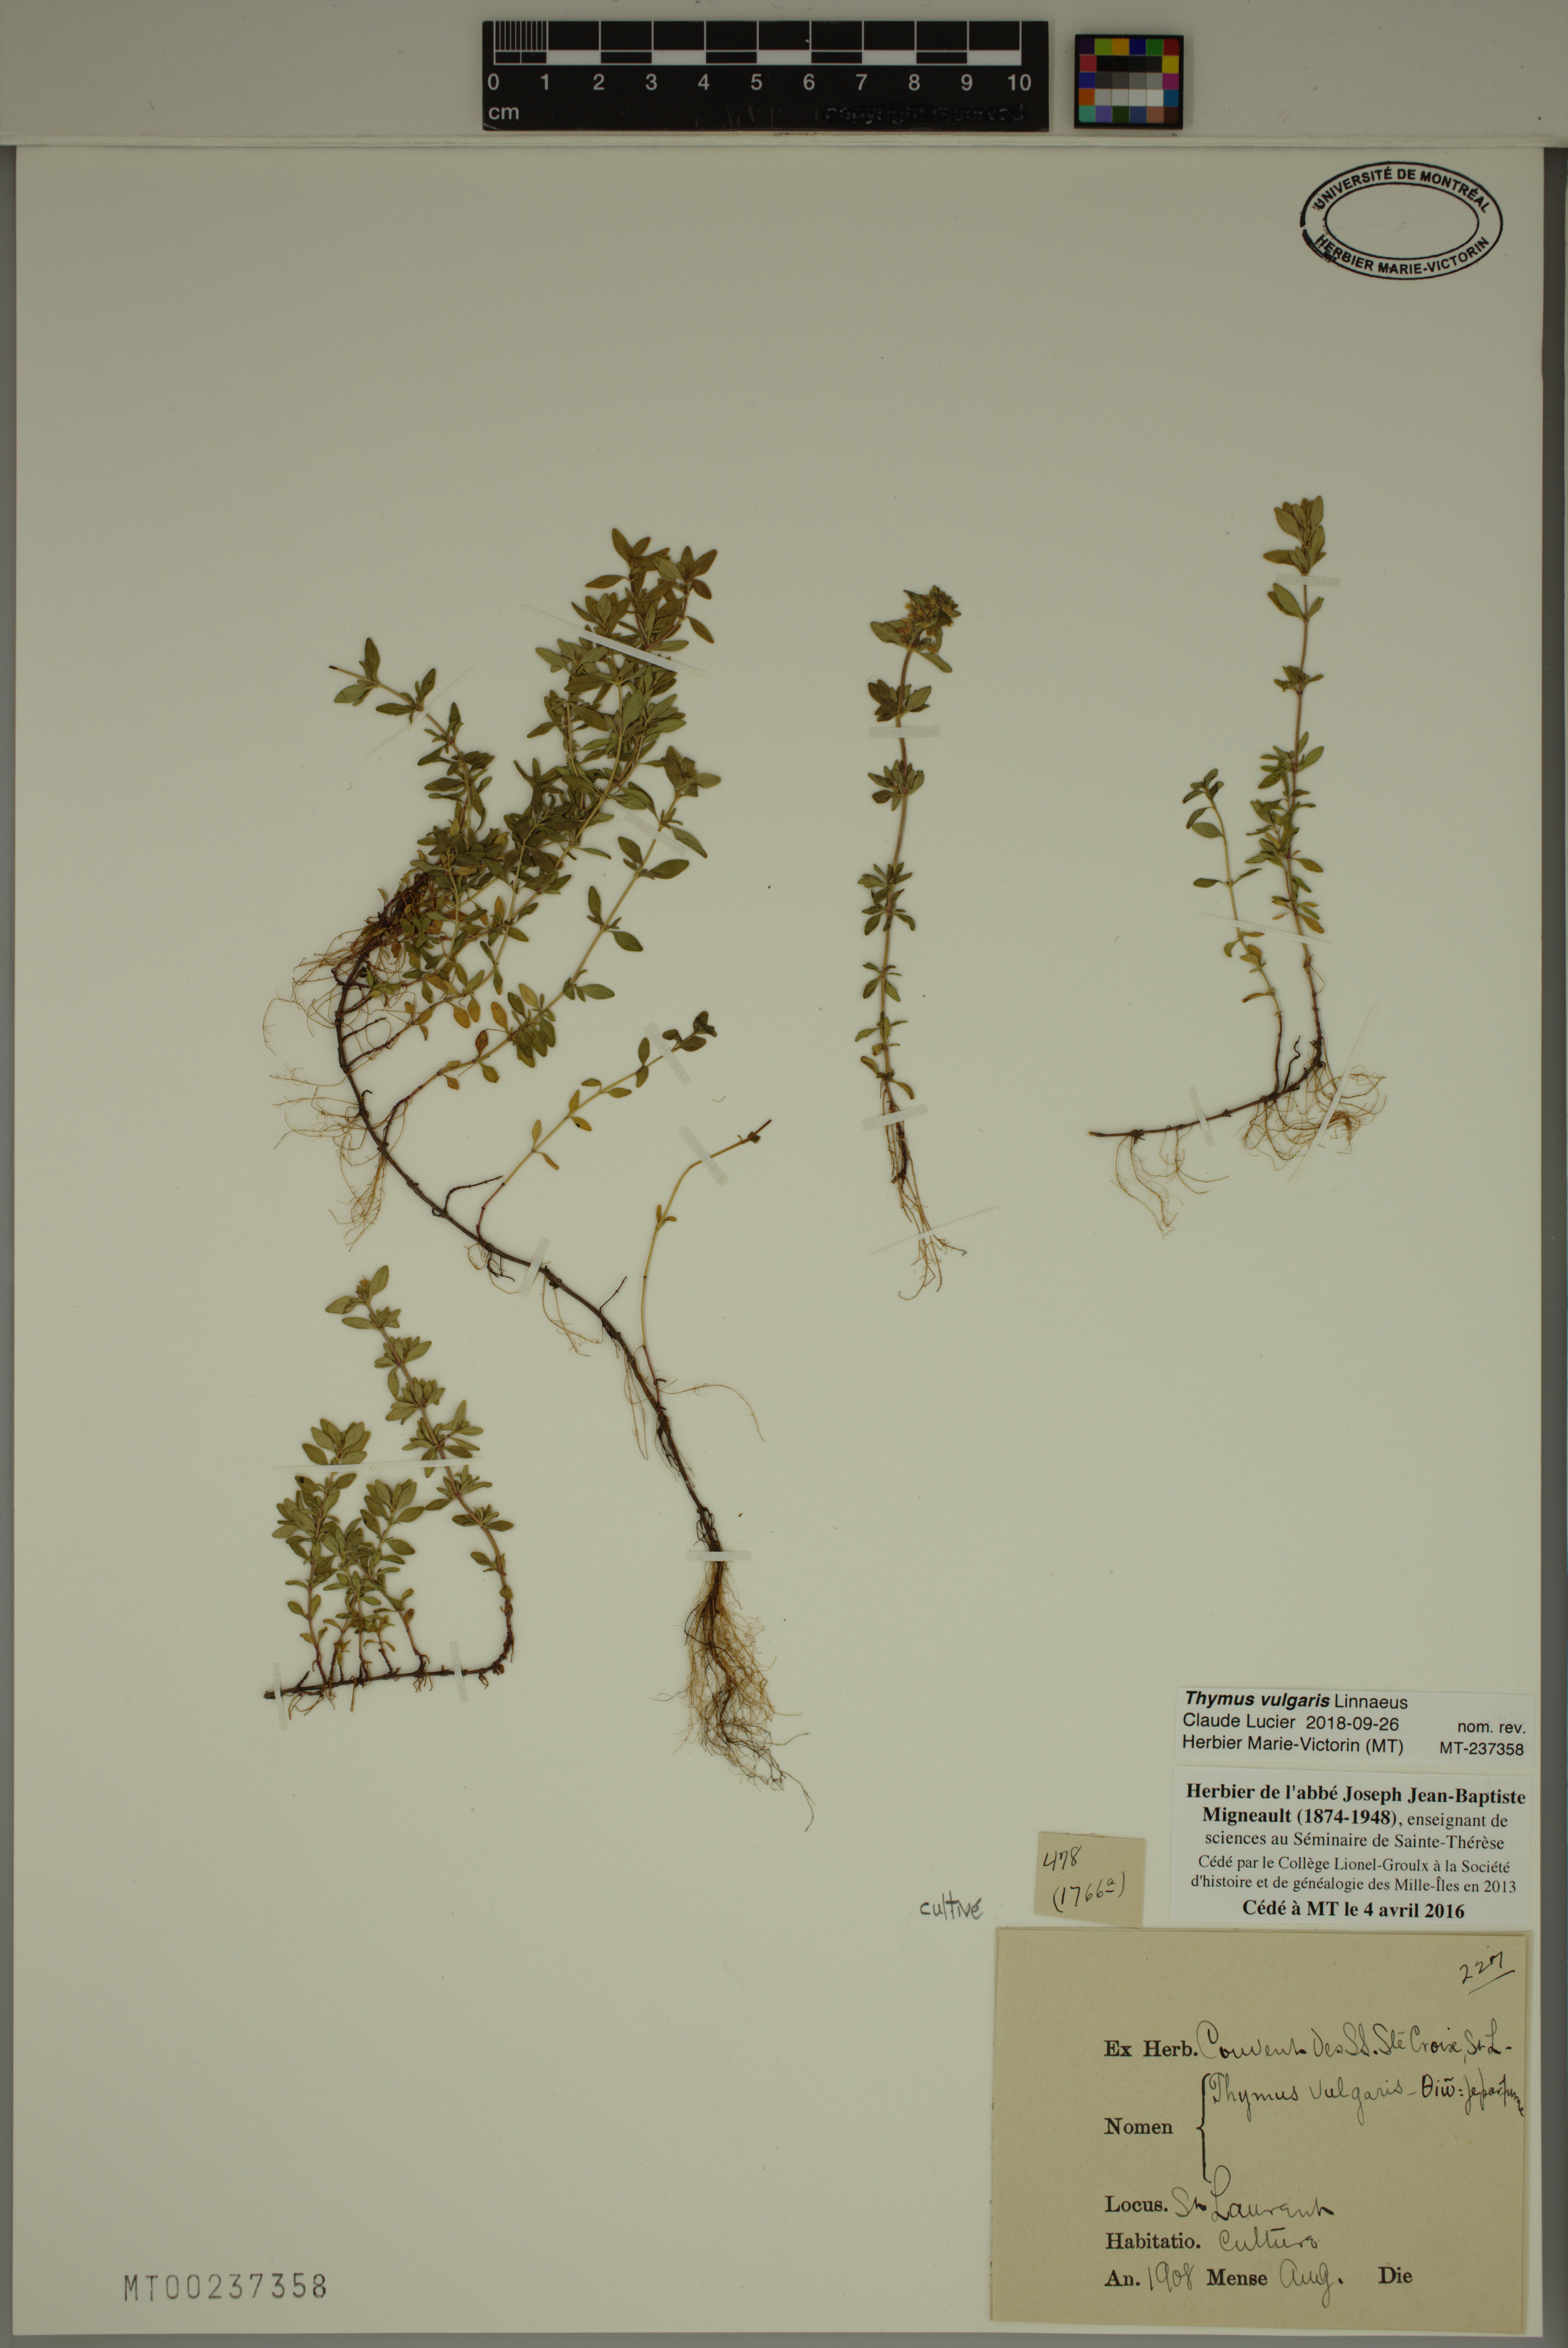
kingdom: Plantae
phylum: Tracheophyta
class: Magnoliopsida
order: Lamiales
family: Lamiaceae
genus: Thymus
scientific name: Thymus vulgaris
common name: Garden thyme
